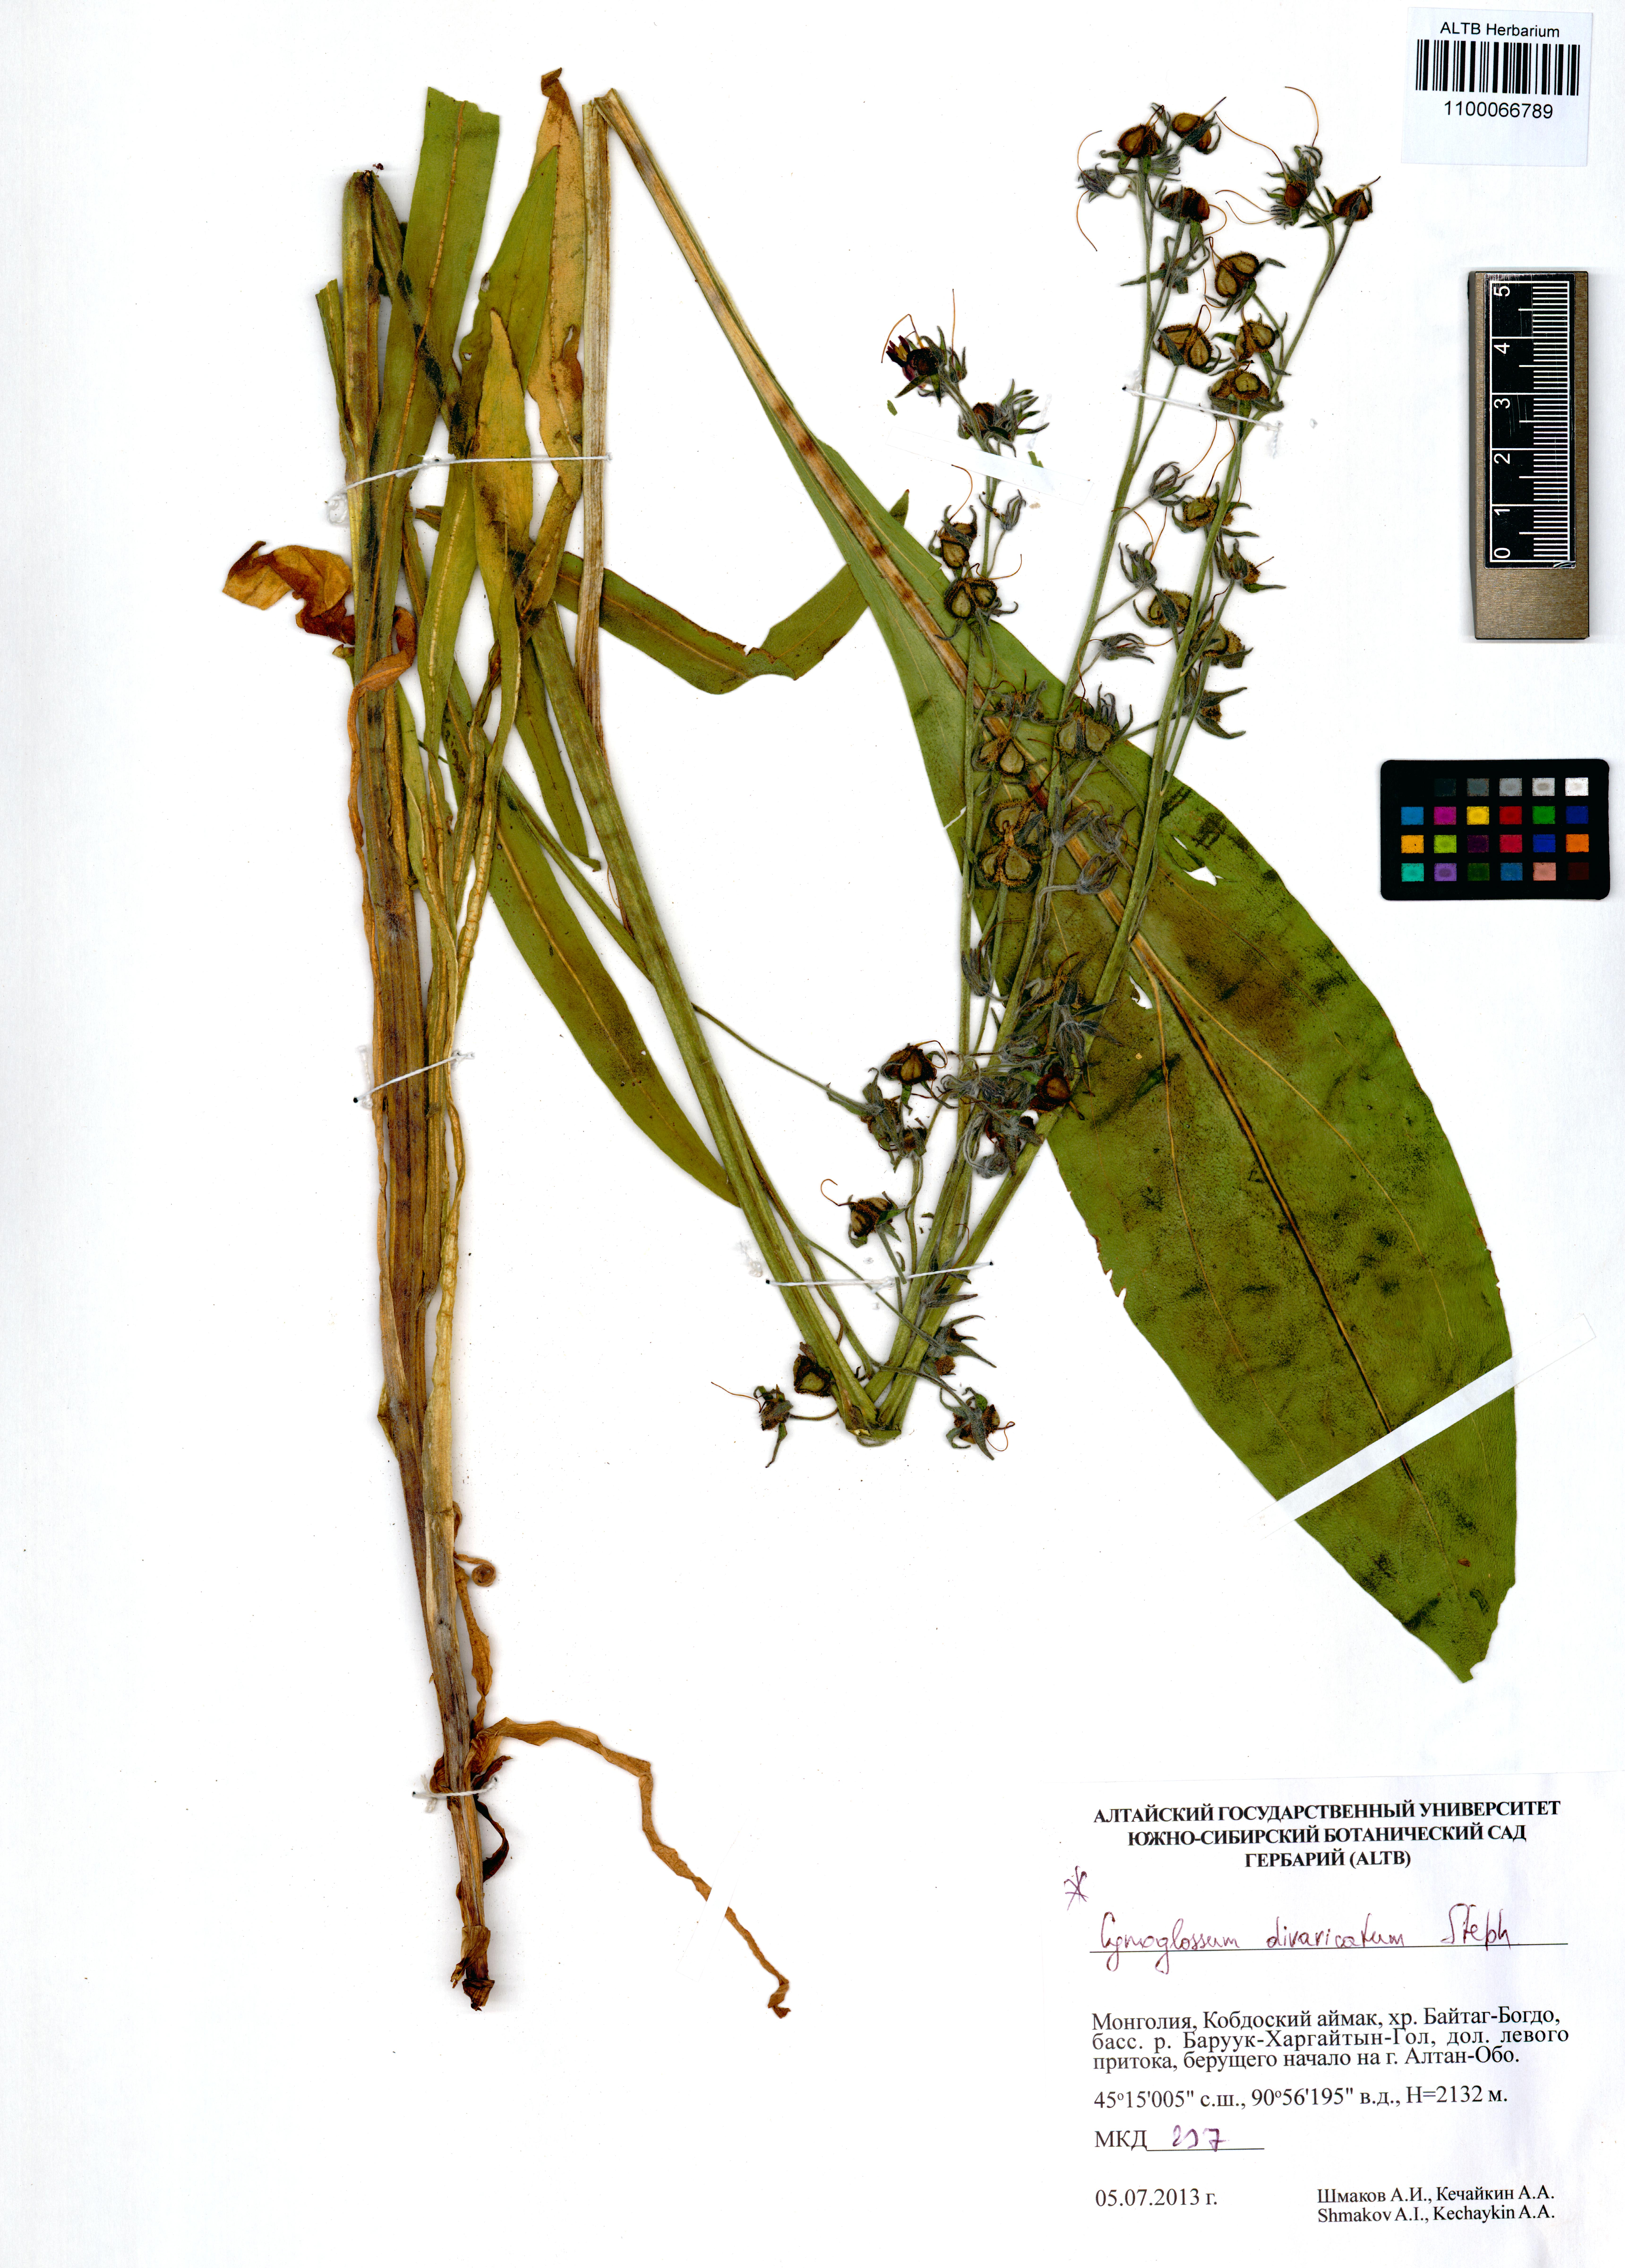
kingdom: Plantae
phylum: Tracheophyta
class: Magnoliopsida
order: Boraginales
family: Boraginaceae
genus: Cynoglossum
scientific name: Cynoglossum divaricatum
